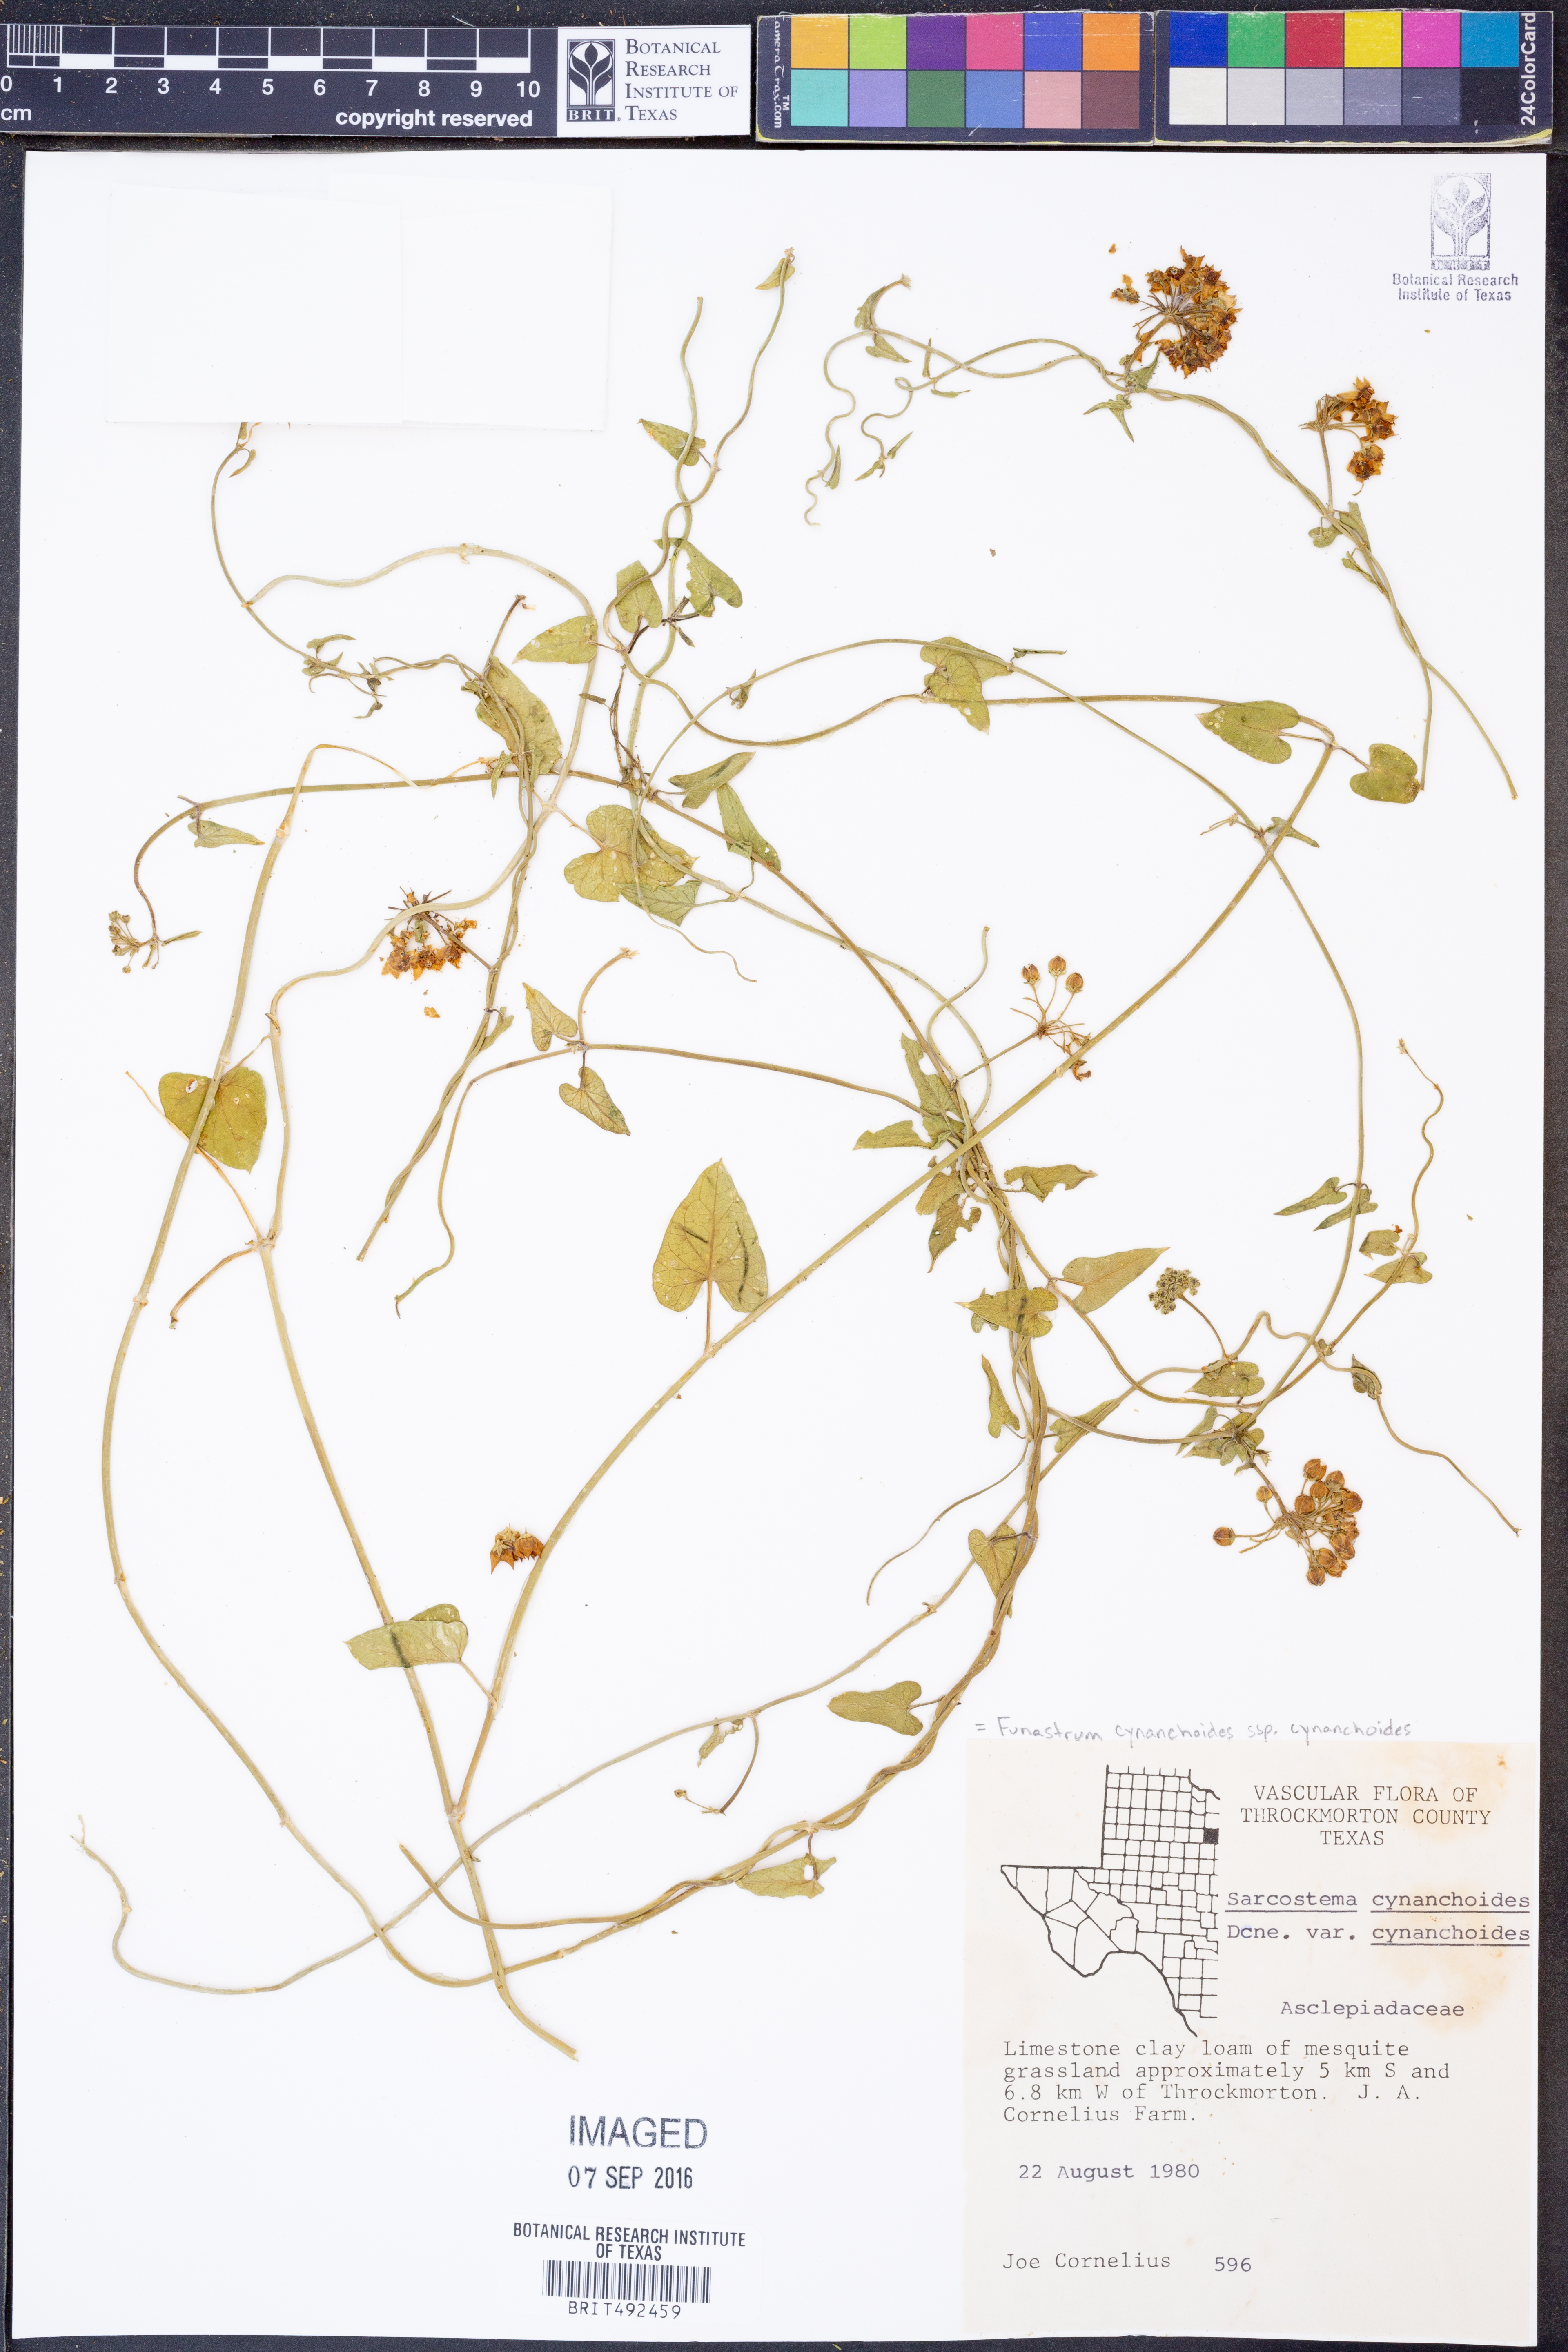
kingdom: Plantae
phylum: Tracheophyta
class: Magnoliopsida
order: Gentianales
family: Apocynaceae
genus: Funastrum
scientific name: Funastrum cynanchoides
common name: Climbing-milkweed
